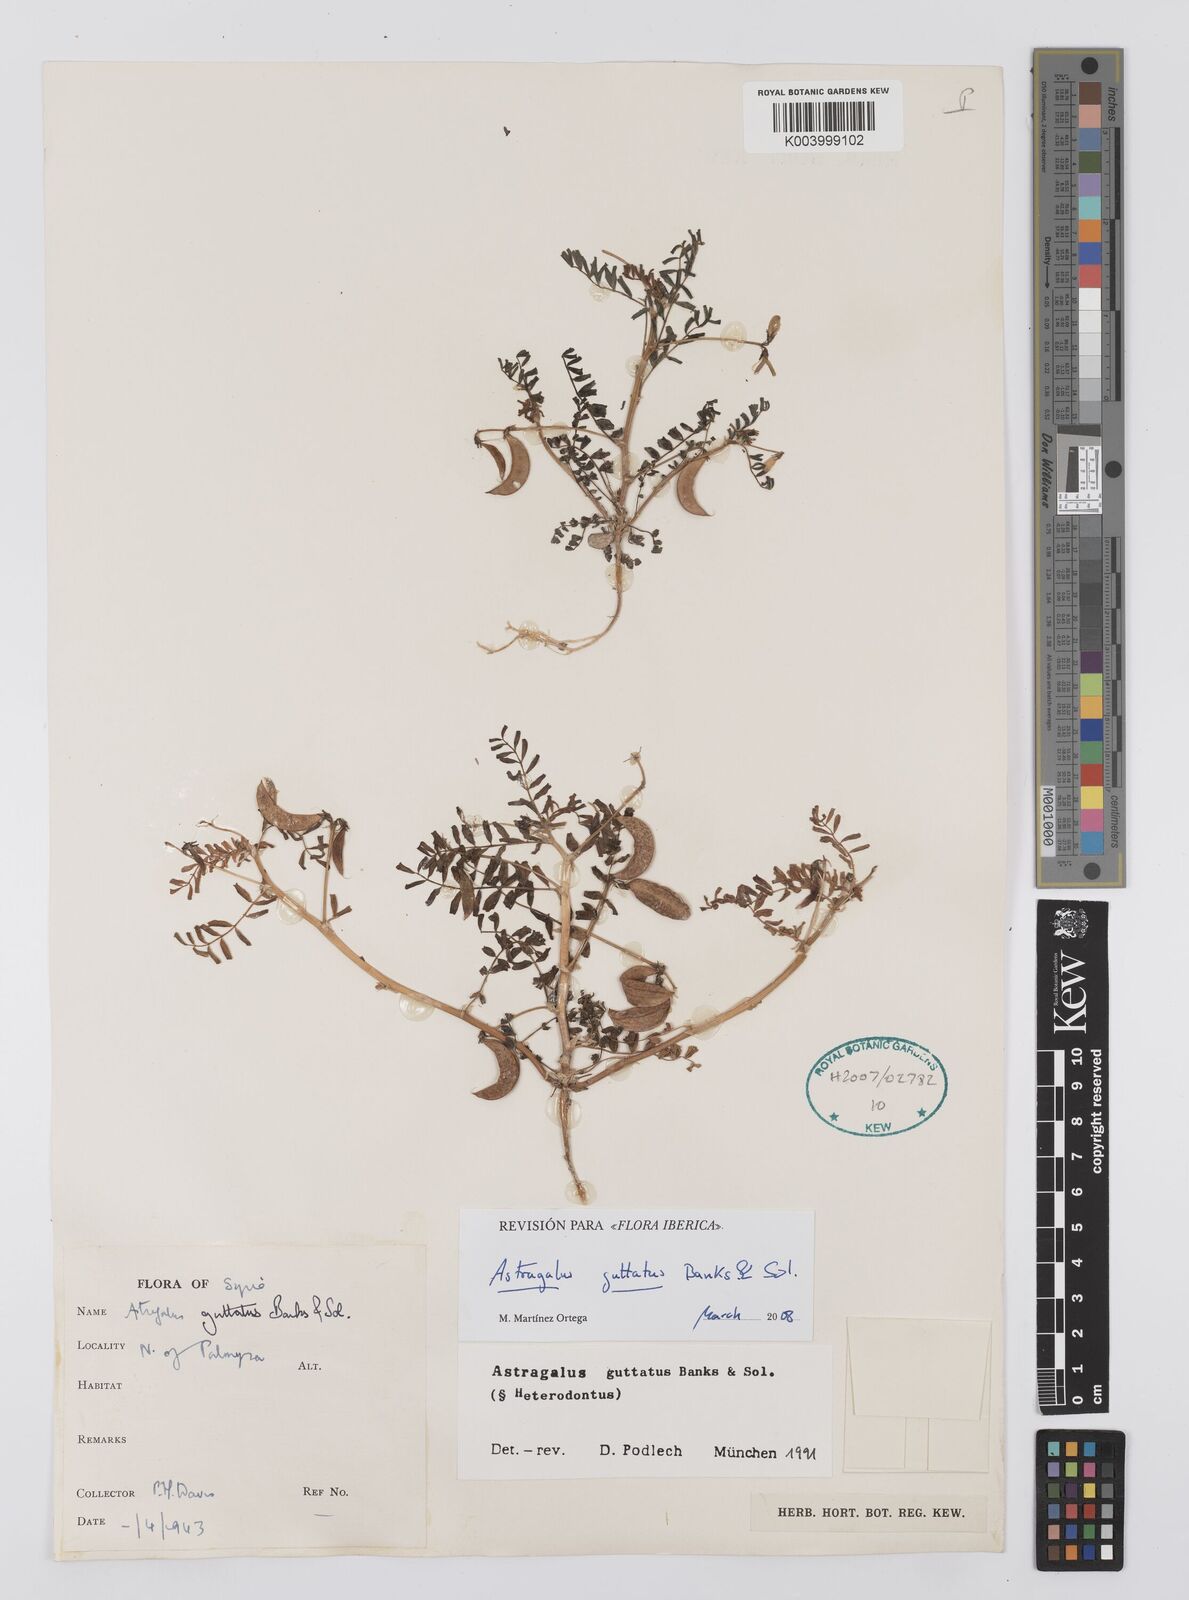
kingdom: Plantae
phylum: Tracheophyta
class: Magnoliopsida
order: Fabales
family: Fabaceae
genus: Astragalus
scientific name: Astragalus guttatus
